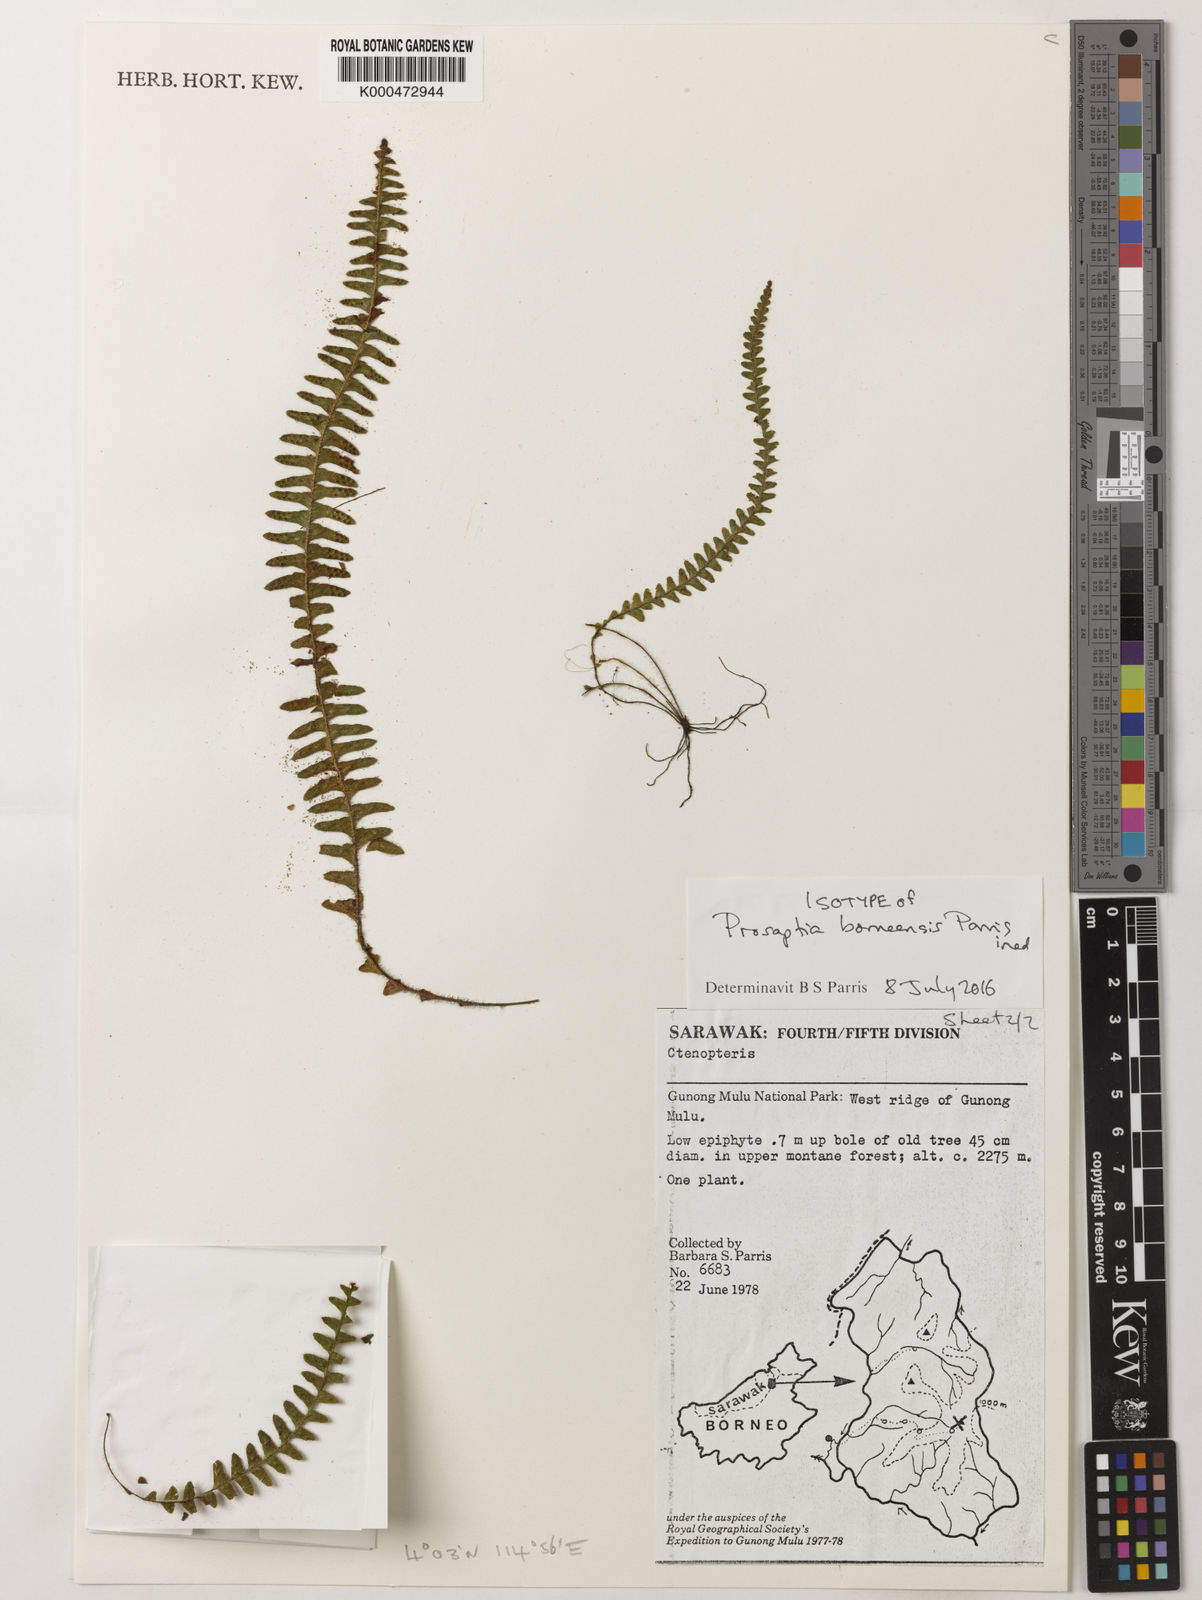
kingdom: Plantae
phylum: Tracheophyta
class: Polypodiopsida
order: Polypodiales
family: Polypodiaceae
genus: Prosaptia
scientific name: Prosaptia
